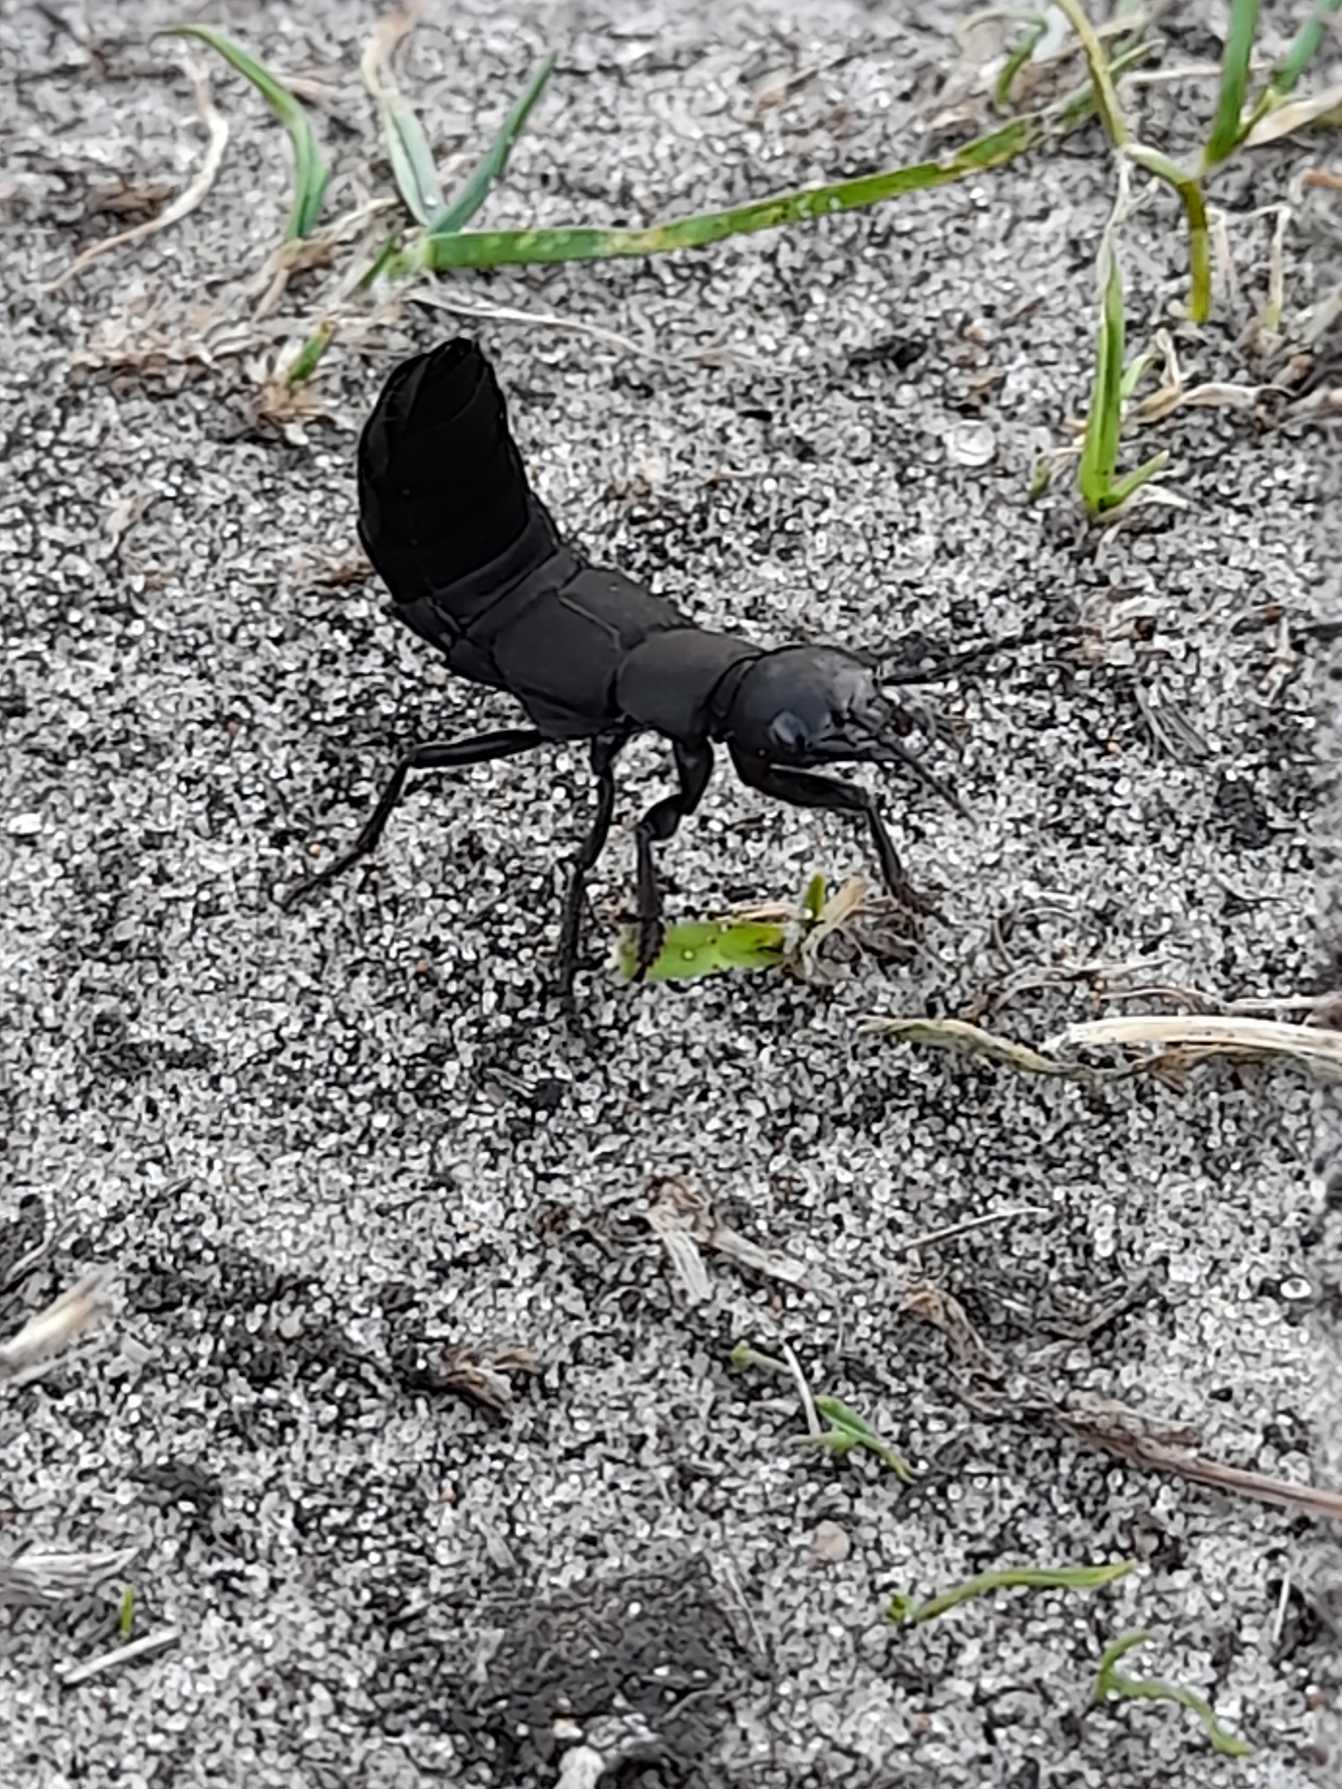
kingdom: Animalia
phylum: Arthropoda
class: Insecta
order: Coleoptera
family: Staphylinidae
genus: Ocypus
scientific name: Ocypus olens
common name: Stor rovbille
